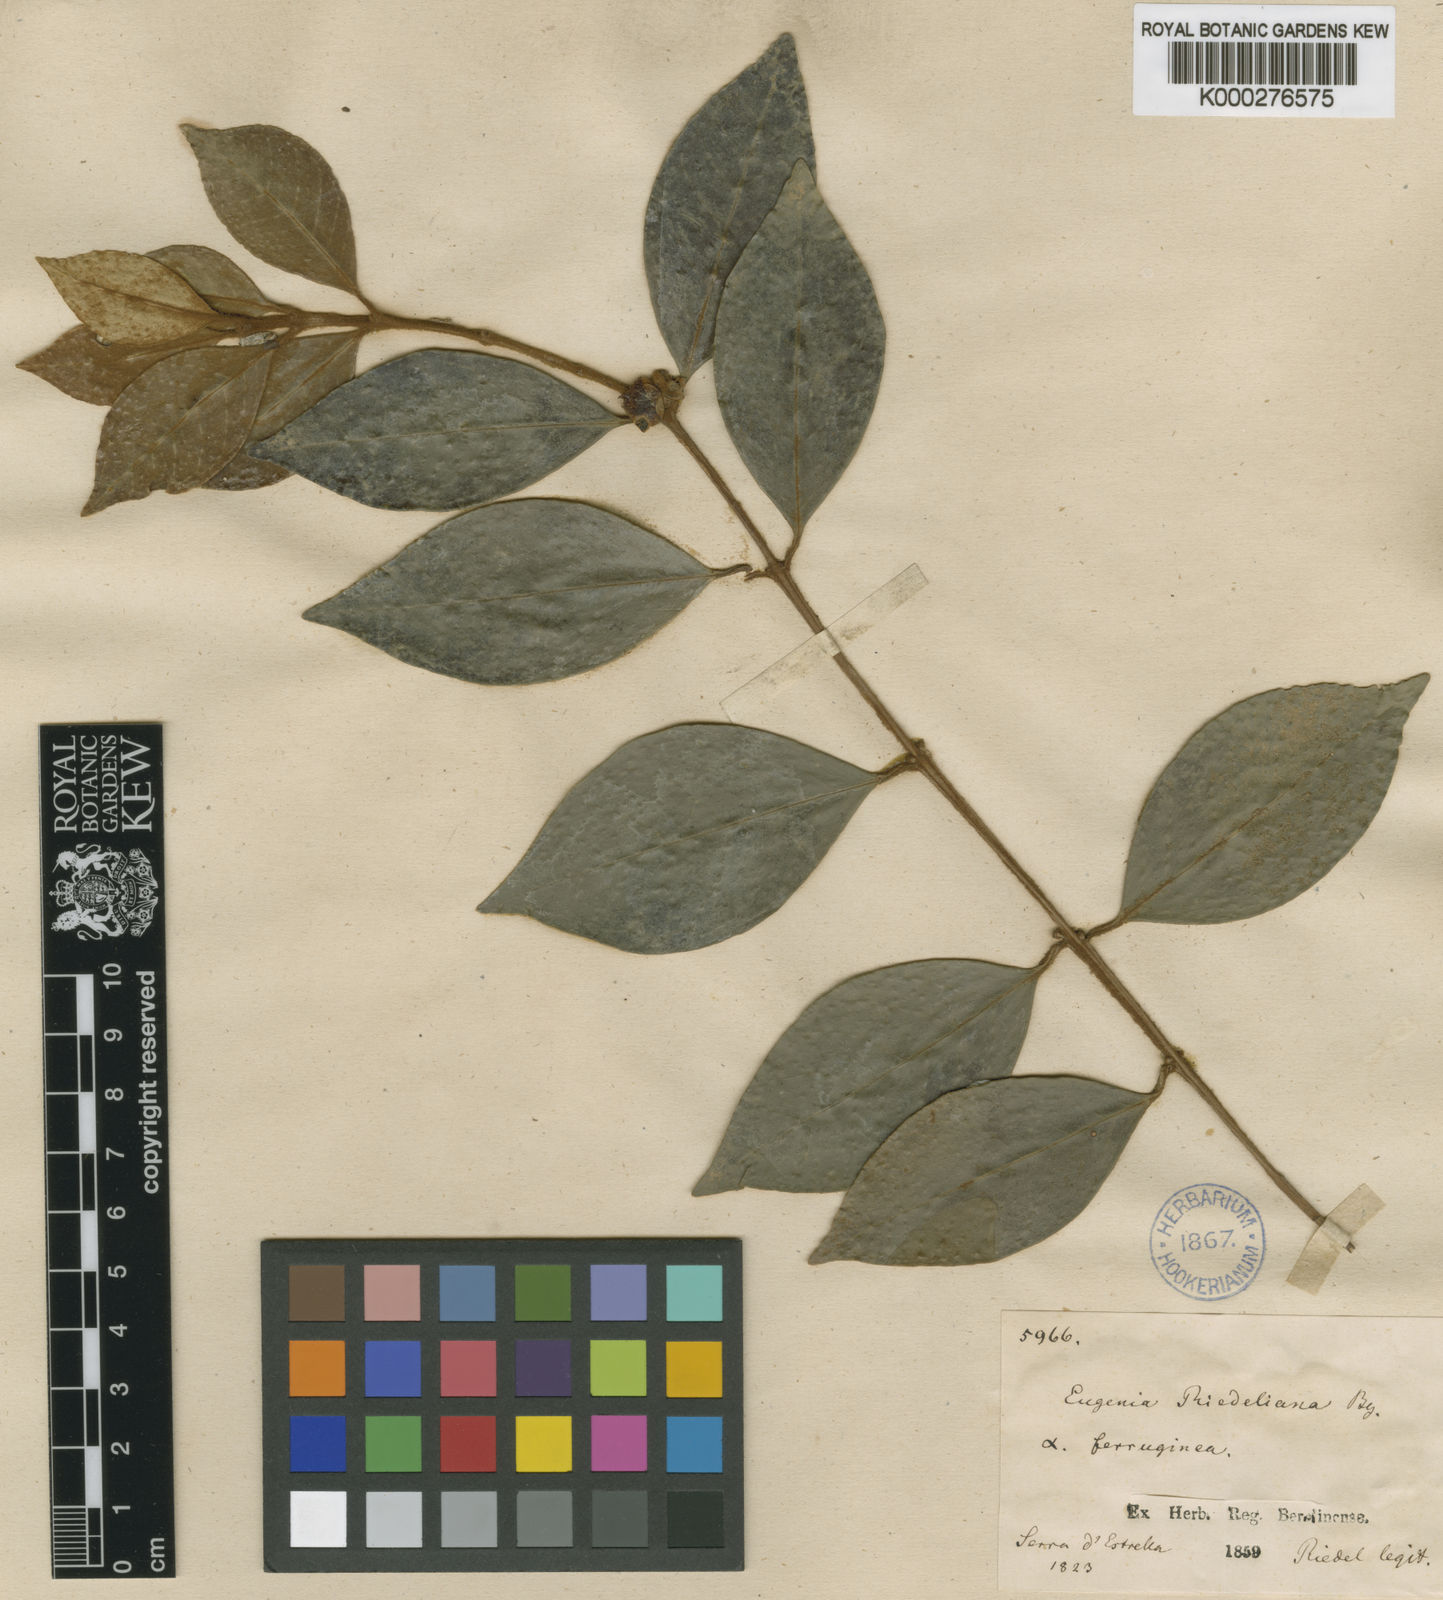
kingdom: Plantae
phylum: Tracheophyta
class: Magnoliopsida
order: Myrtales
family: Myrtaceae
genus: Eugenia
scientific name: Eugenia schuechiana
